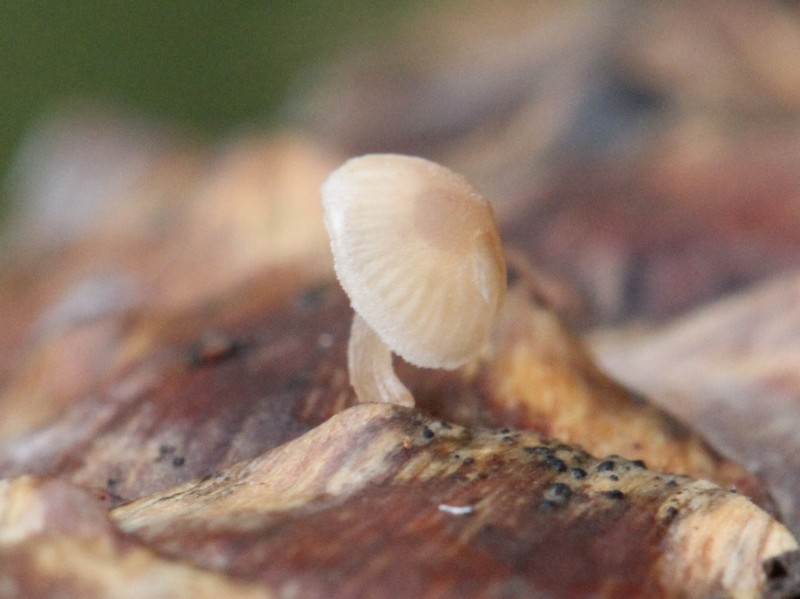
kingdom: Fungi
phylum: Basidiomycota
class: Agaricomycetes
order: Agaricales
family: Marasmiaceae
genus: Baeospora
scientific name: Baeospora myosura
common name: koglebruskhat
